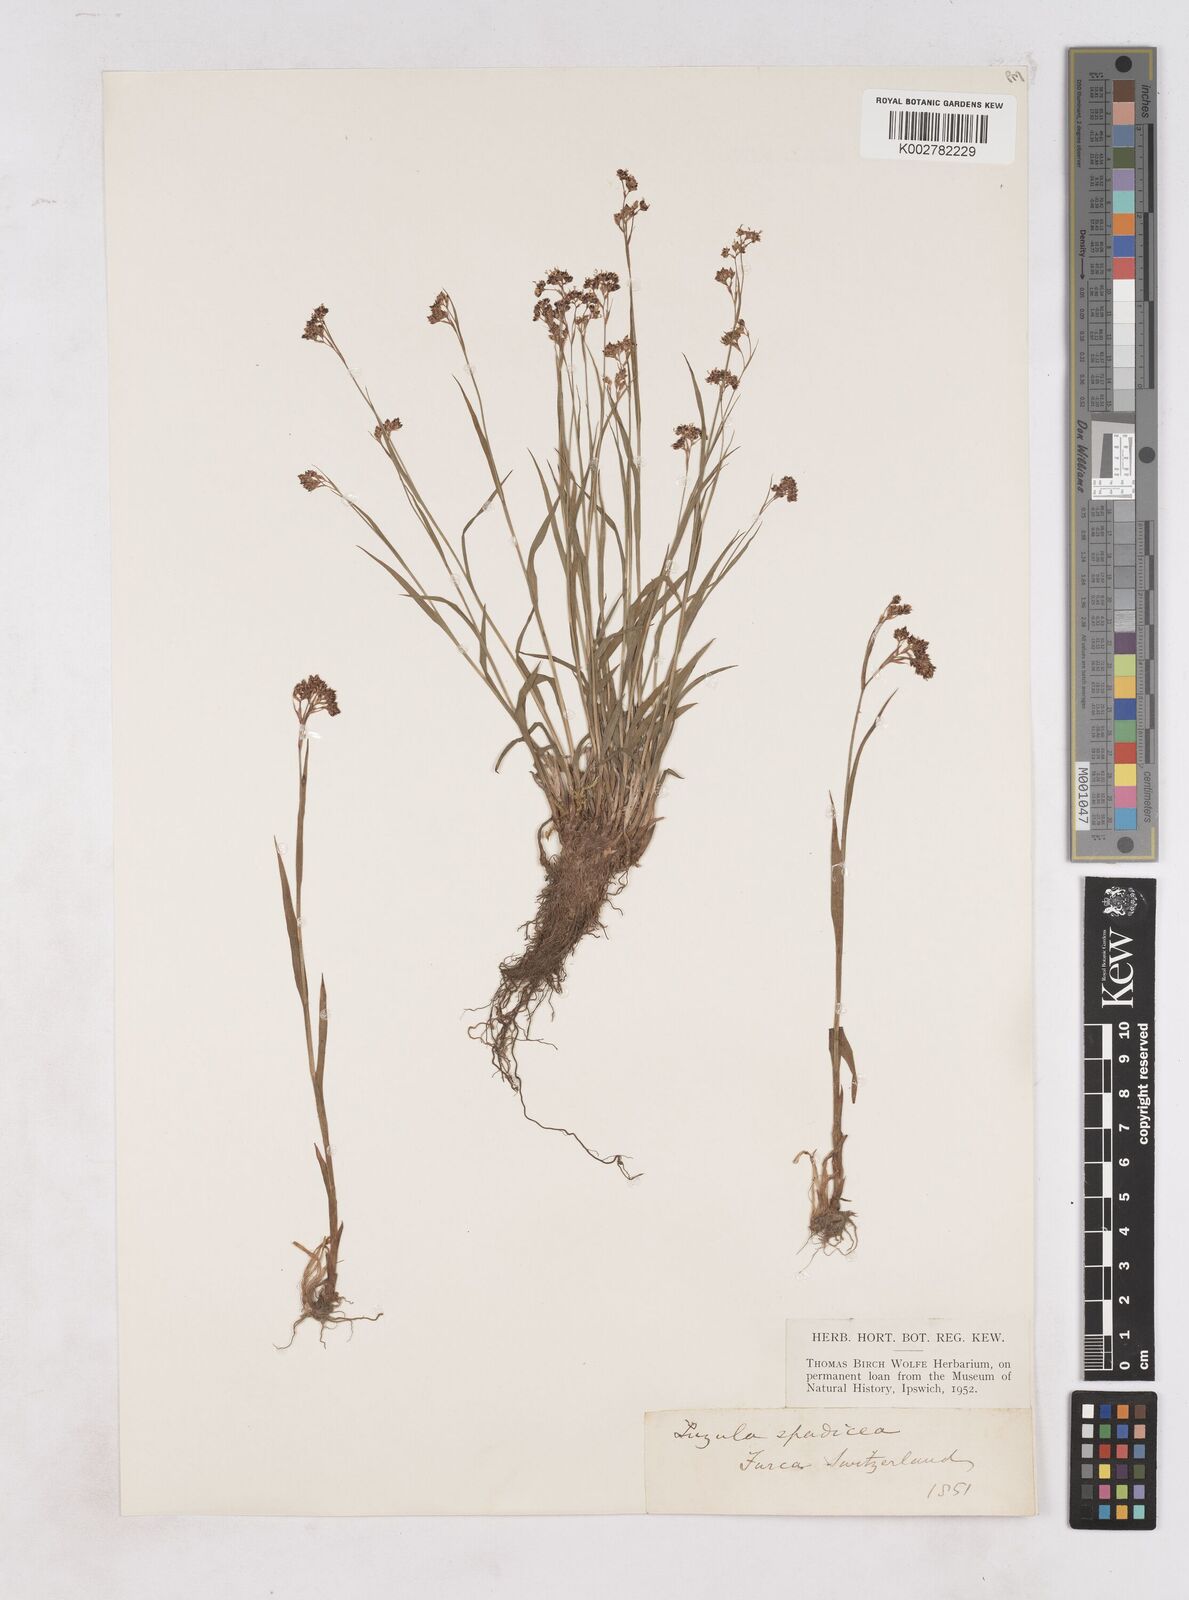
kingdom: Plantae
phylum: Tracheophyta
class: Liliopsida
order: Poales
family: Juncaceae
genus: Luzula
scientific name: Luzula alpinopilosa
